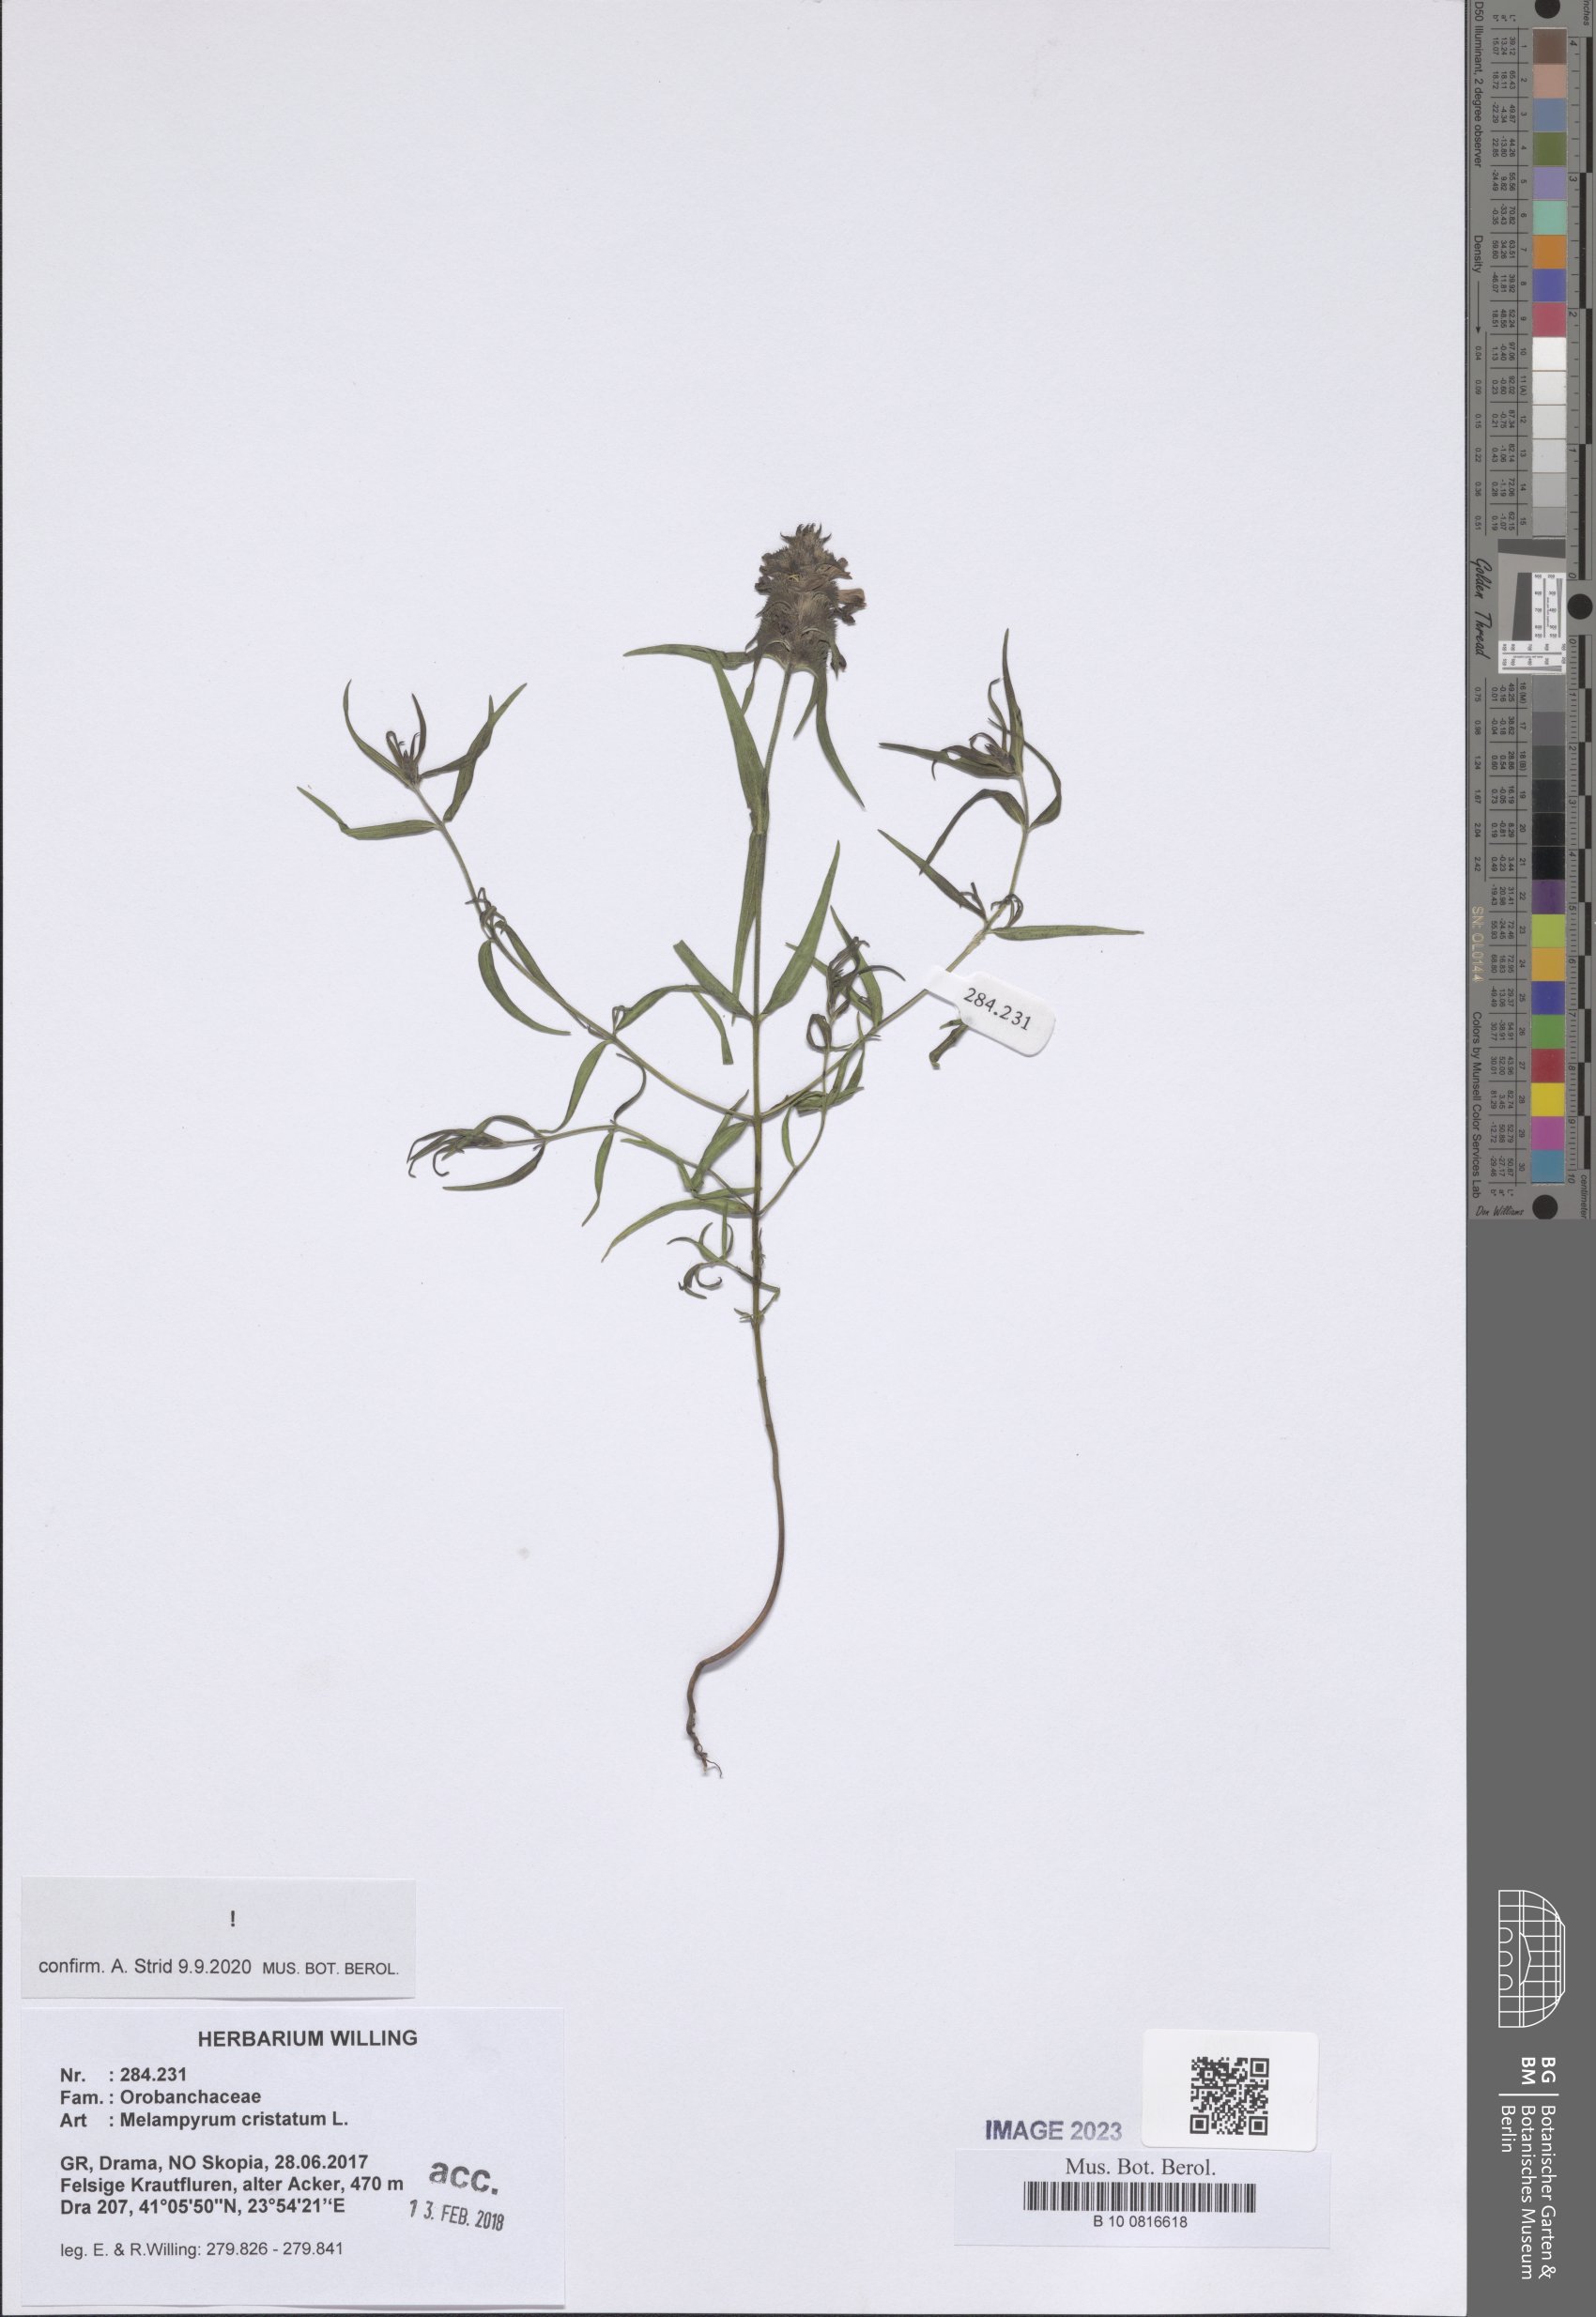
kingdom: Plantae
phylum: Tracheophyta
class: Magnoliopsida
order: Lamiales
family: Orobanchaceae
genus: Melampyrum
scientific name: Melampyrum cristatum
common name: Crested cow-wheat
